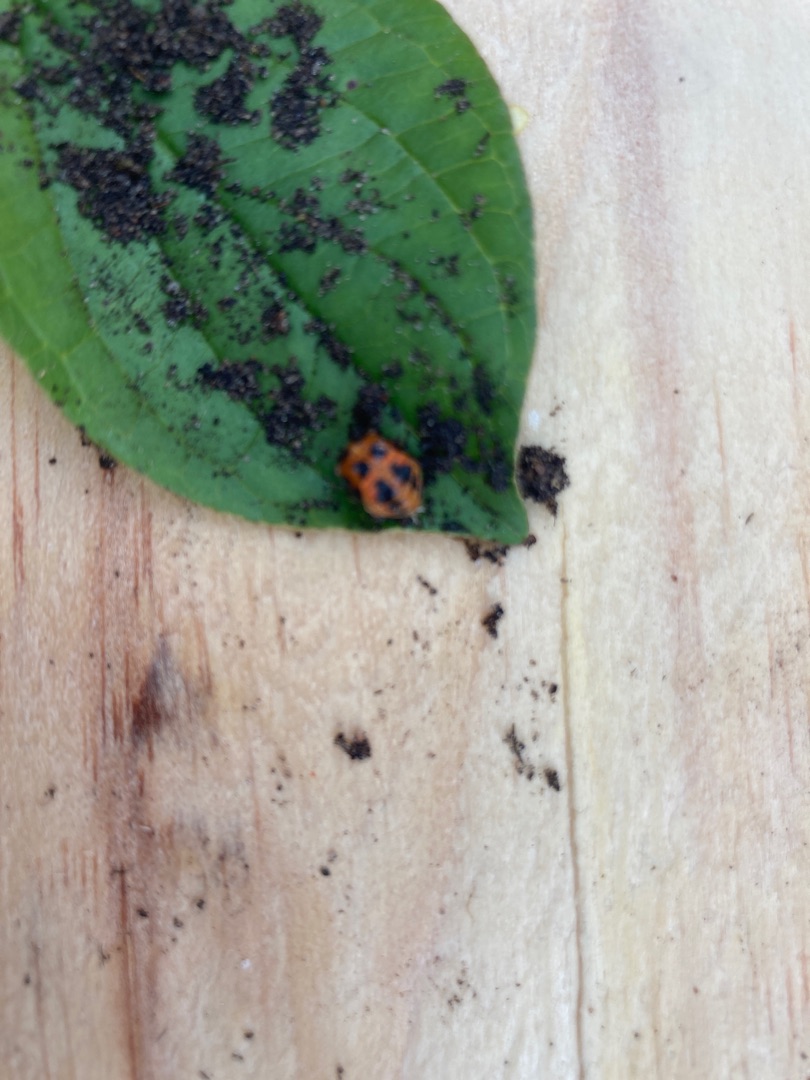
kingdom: Animalia
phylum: Arthropoda
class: Insecta
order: Coleoptera
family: Coccinellidae
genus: Harmonia
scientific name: Harmonia axyridis
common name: Harlekinmariehøne
